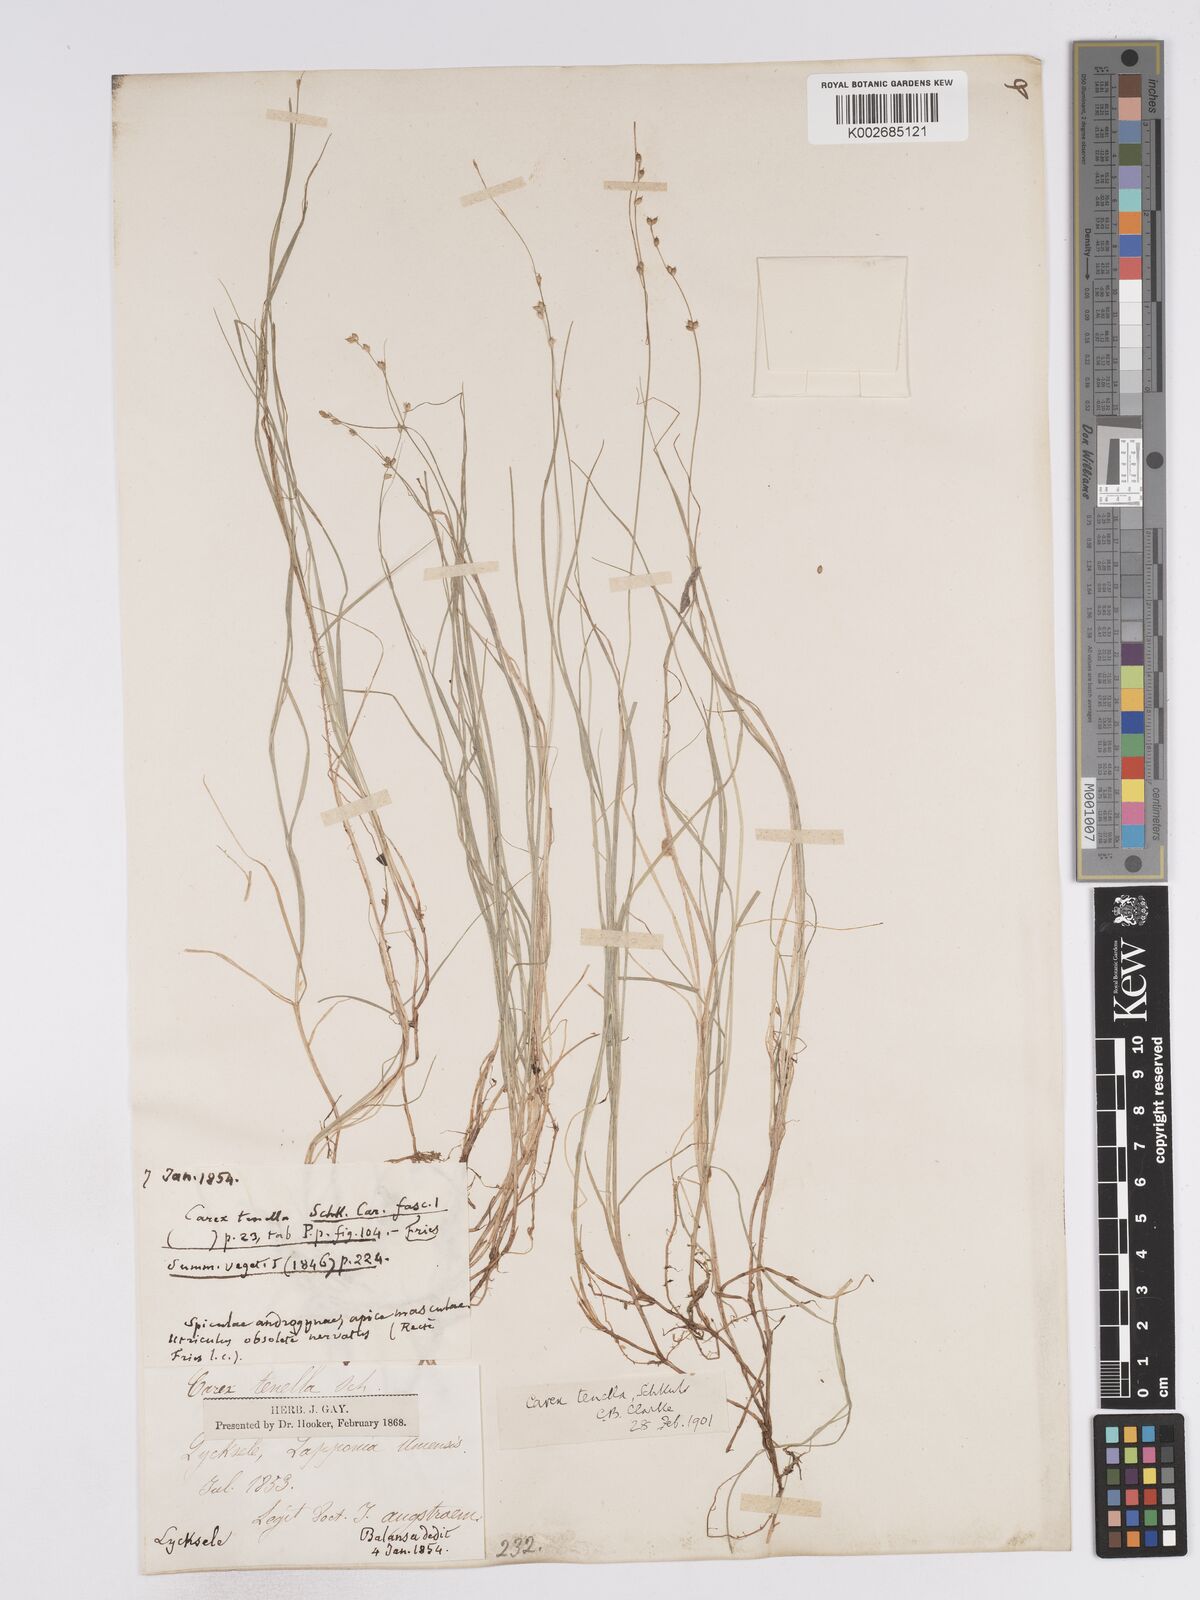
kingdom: Plantae
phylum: Tracheophyta
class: Liliopsida
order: Poales
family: Cyperaceae
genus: Carex
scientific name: Carex disperma
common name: Short-leaved sedge
